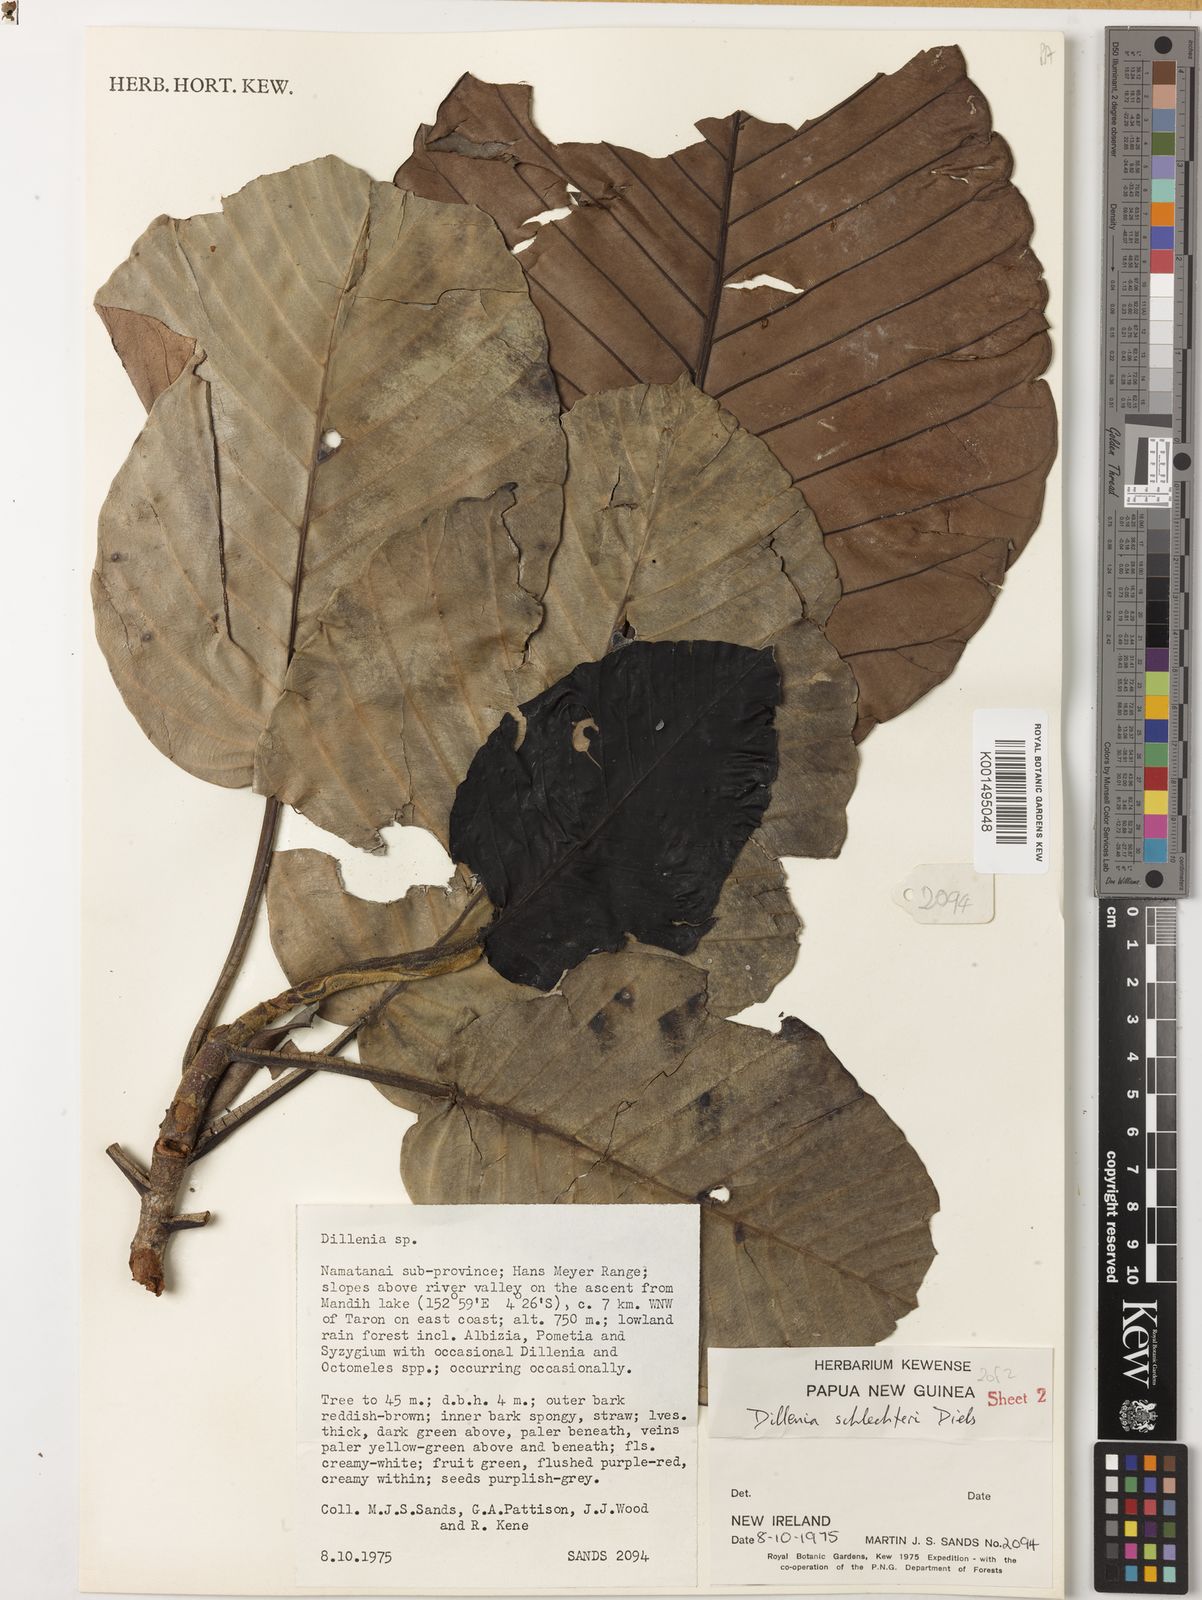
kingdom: Plantae
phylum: Tracheophyta
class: Magnoliopsida
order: Dilleniales
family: Dilleniaceae
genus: Dillenia
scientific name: Dillenia schlechteri
